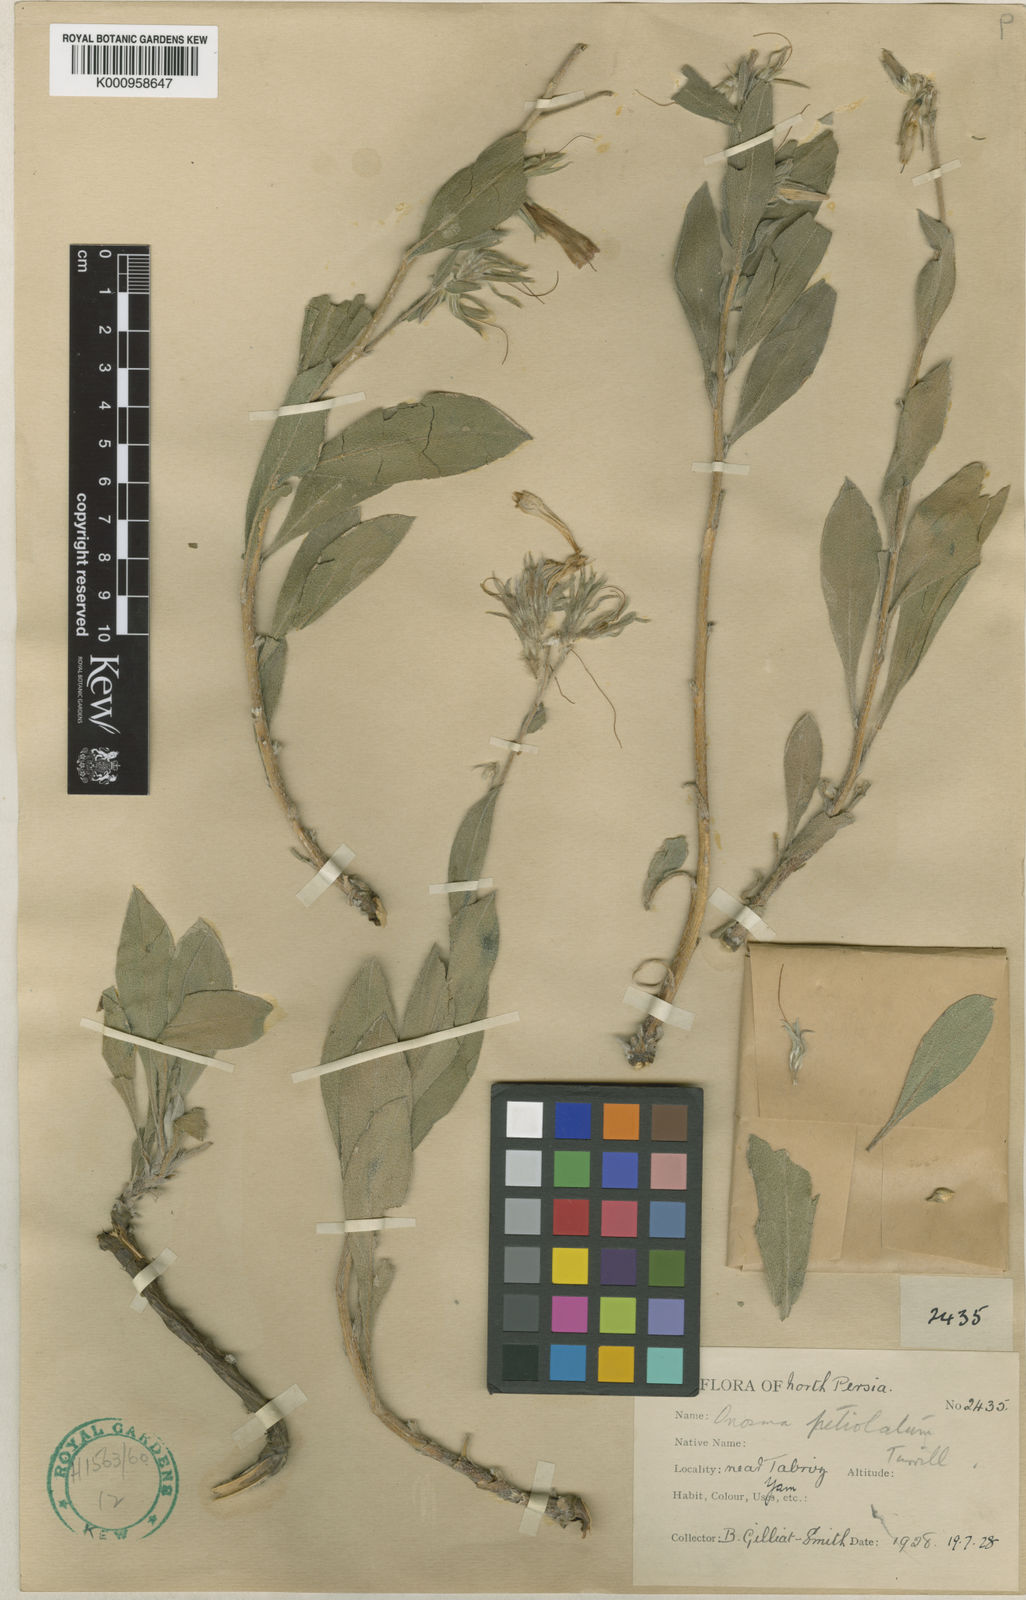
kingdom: Plantae
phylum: Tracheophyta
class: Magnoliopsida
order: Boraginales
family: Boraginaceae
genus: Onosma
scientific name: Onosma pachypoda
